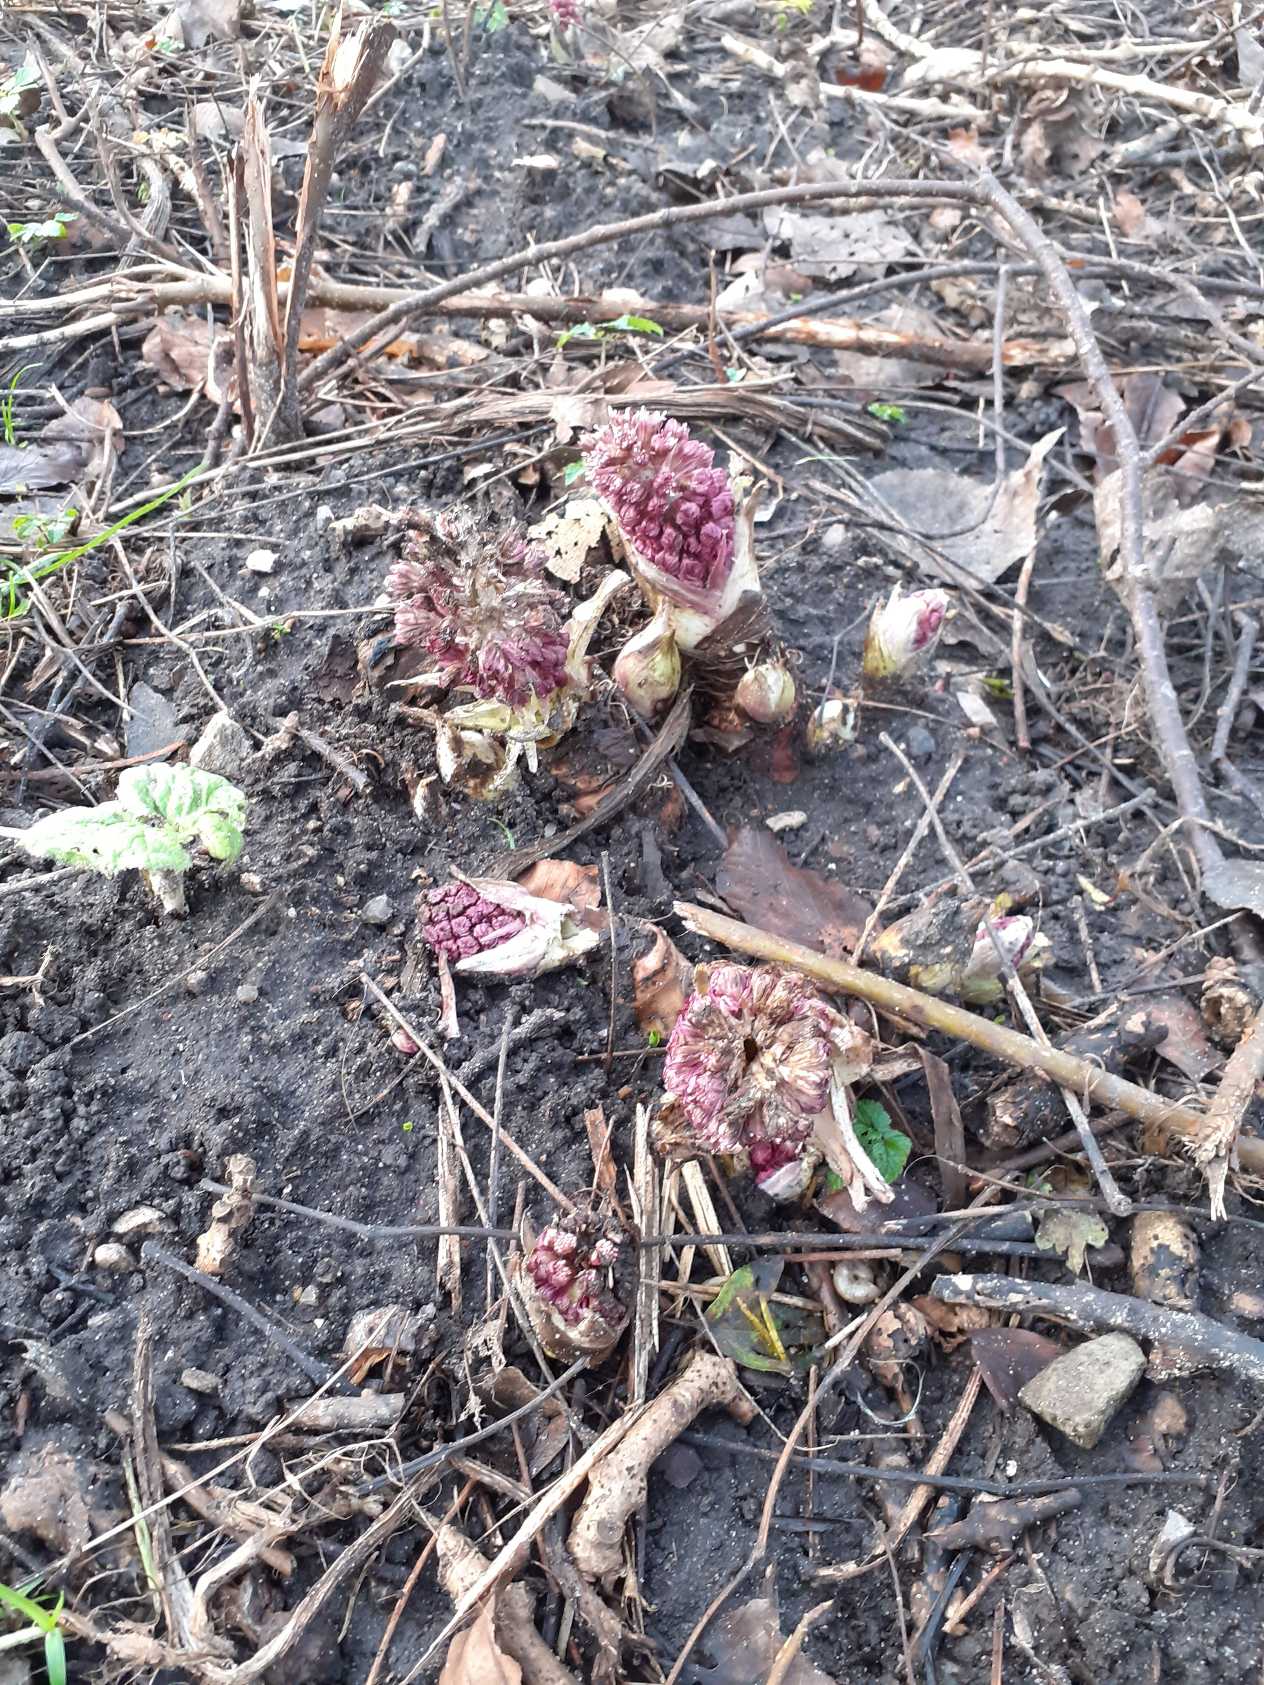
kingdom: Plantae
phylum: Tracheophyta
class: Magnoliopsida
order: Asterales
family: Asteraceae
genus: Petasites
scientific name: Petasites hybridus
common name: Rød hestehov
